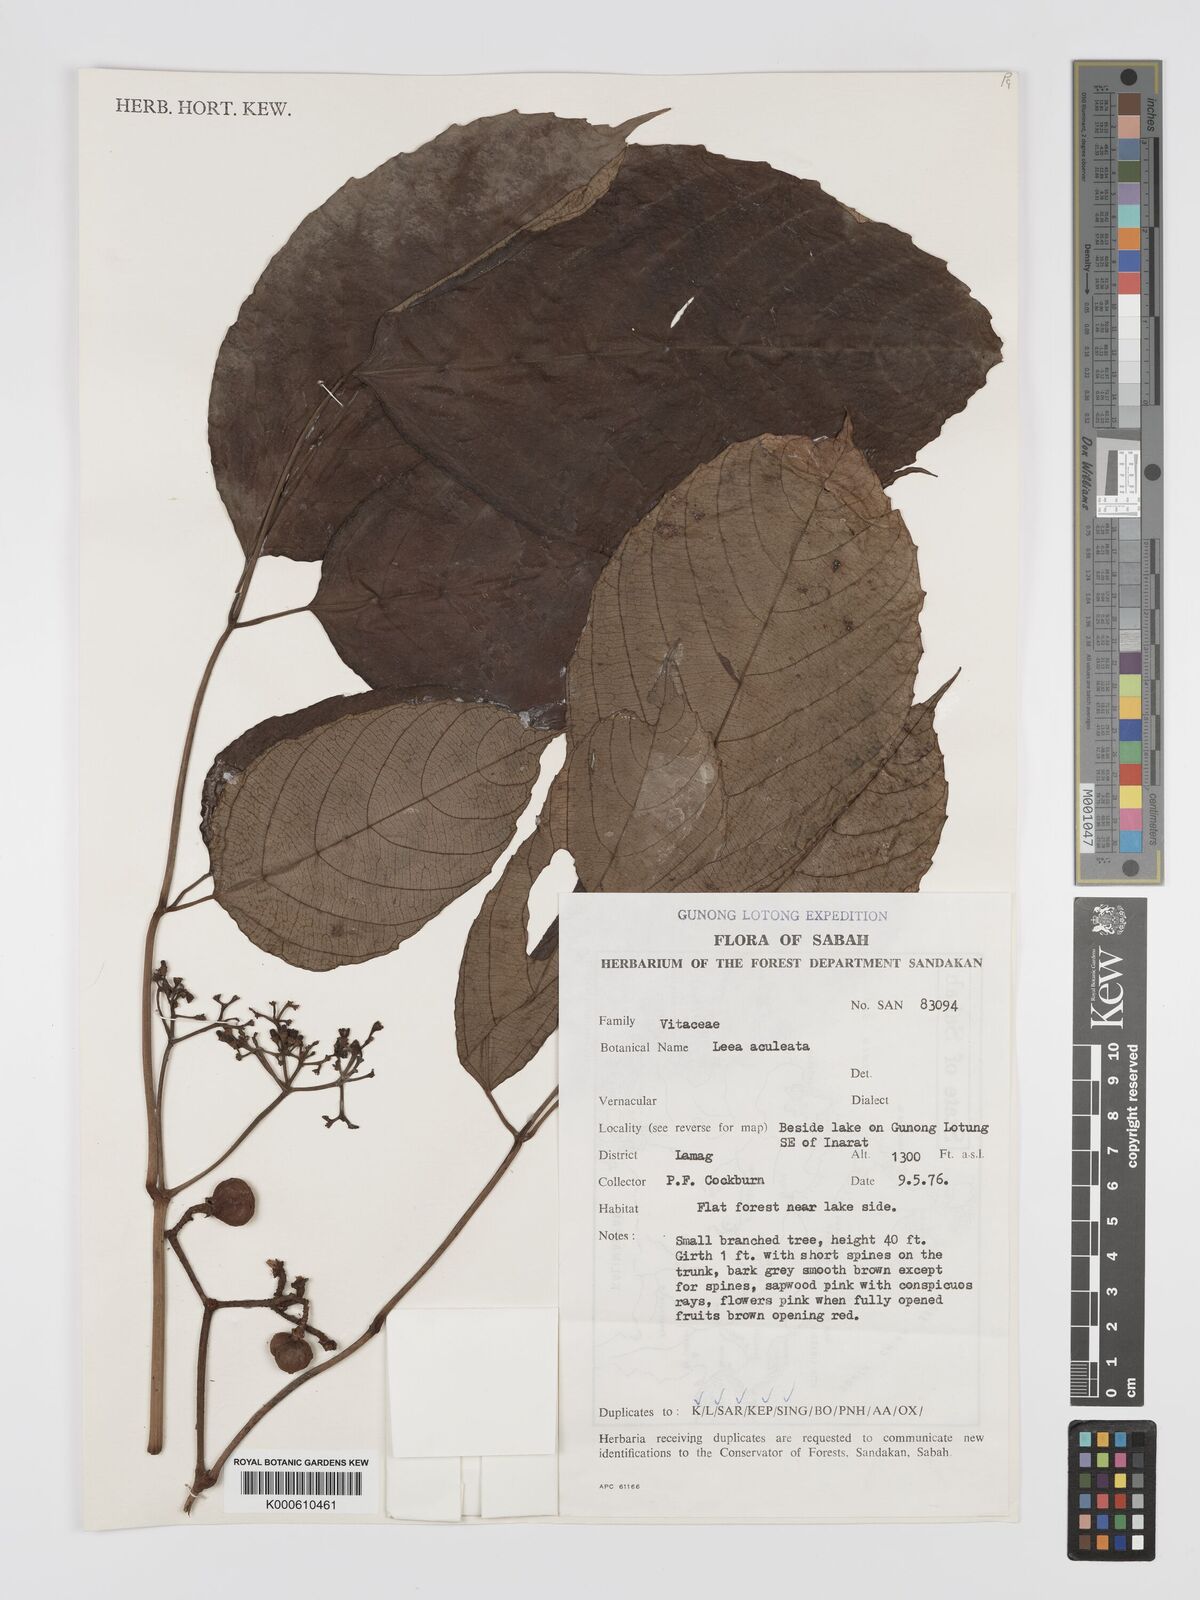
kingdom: Plantae
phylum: Tracheophyta
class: Magnoliopsida
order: Vitales
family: Vitaceae
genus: Leea
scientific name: Leea aculeata
